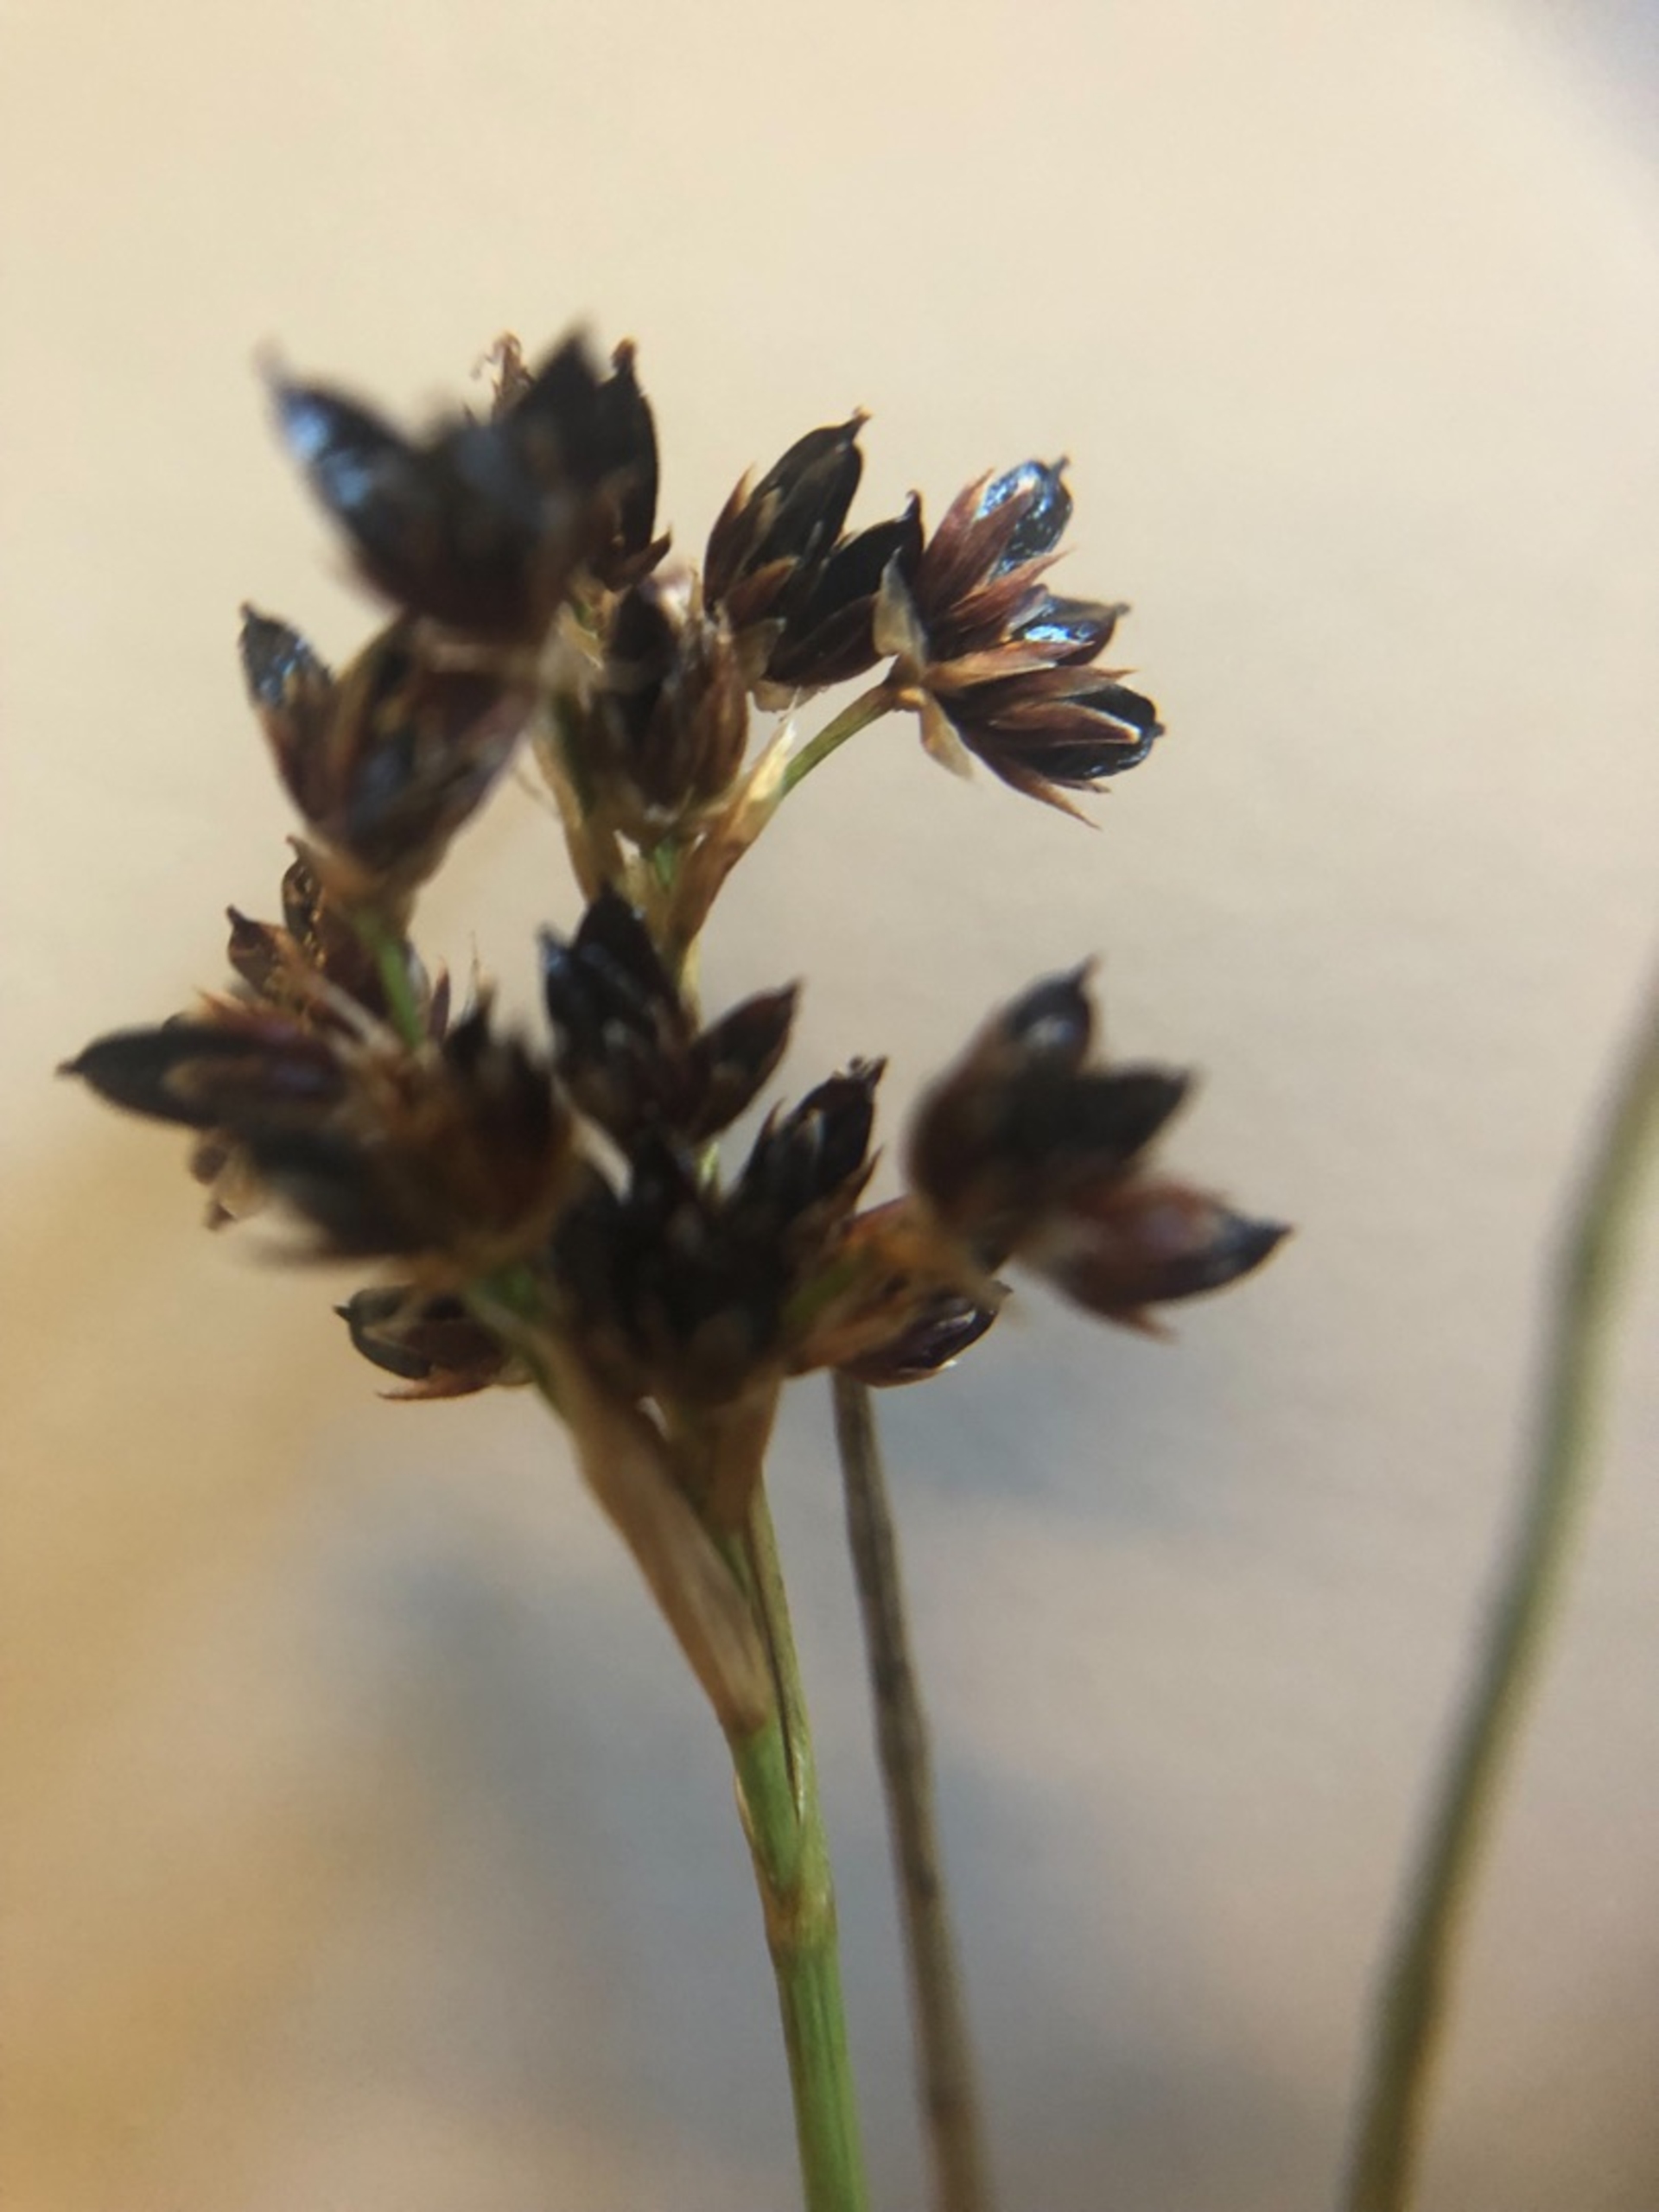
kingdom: Plantae
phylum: Tracheophyta
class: Liliopsida
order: Poales
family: Juncaceae
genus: Juncus
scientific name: Juncus articulatus
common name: Glanskapslet siv
